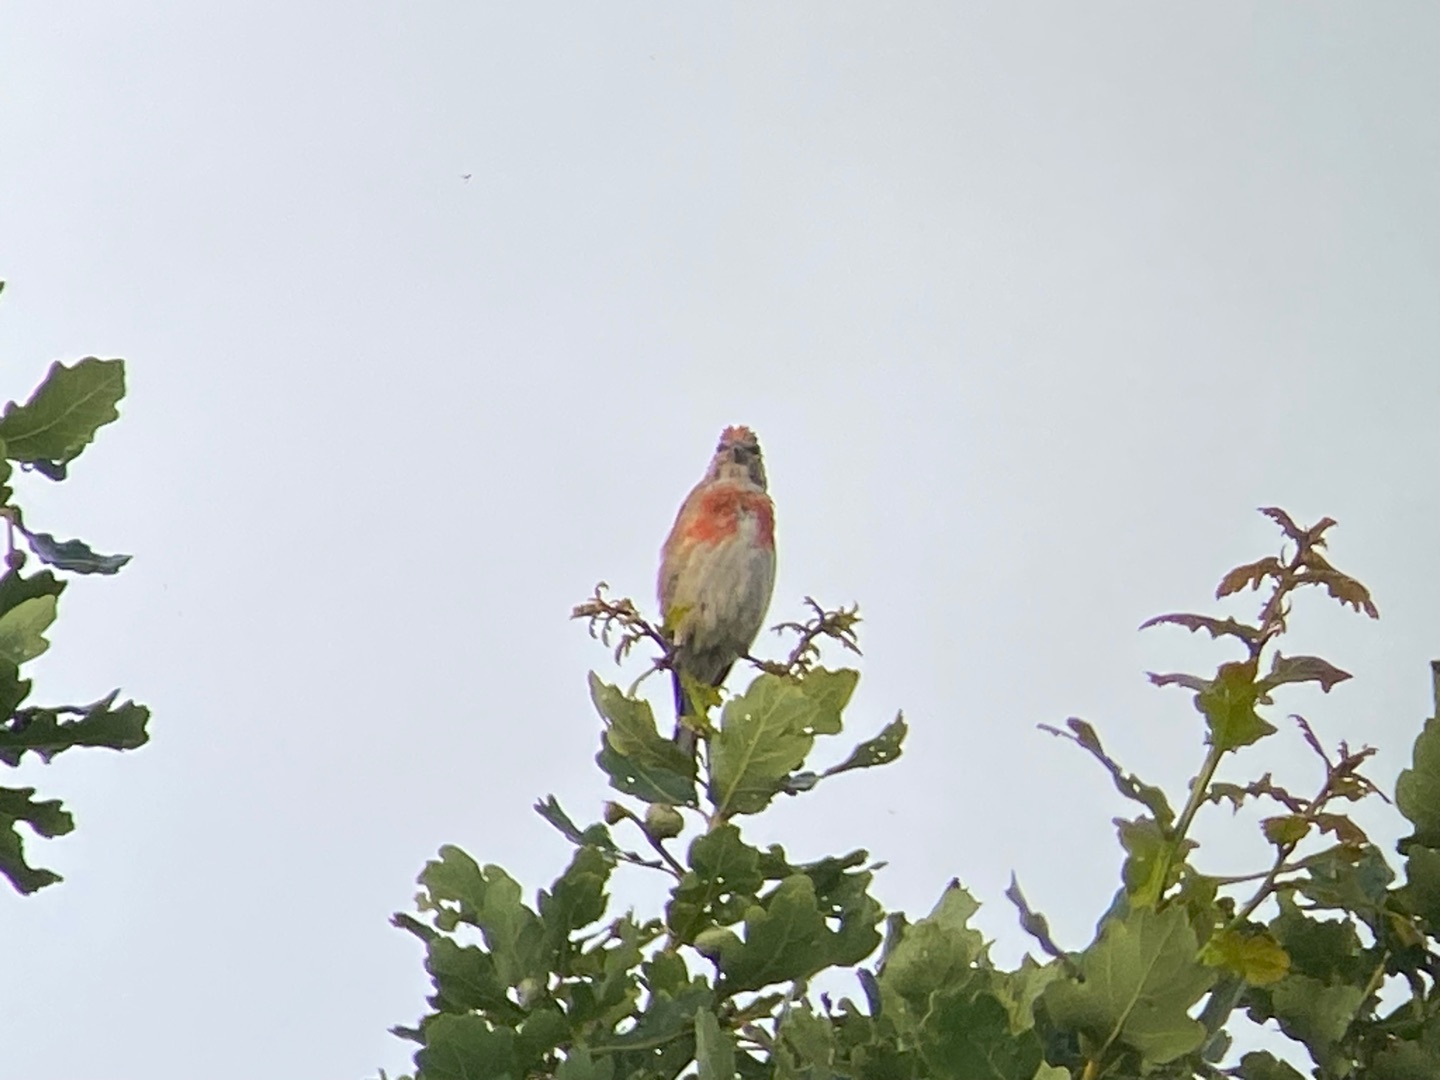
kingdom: Animalia
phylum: Chordata
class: Aves
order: Passeriformes
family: Fringillidae
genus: Linaria
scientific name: Linaria cannabina
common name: Tornirisk
